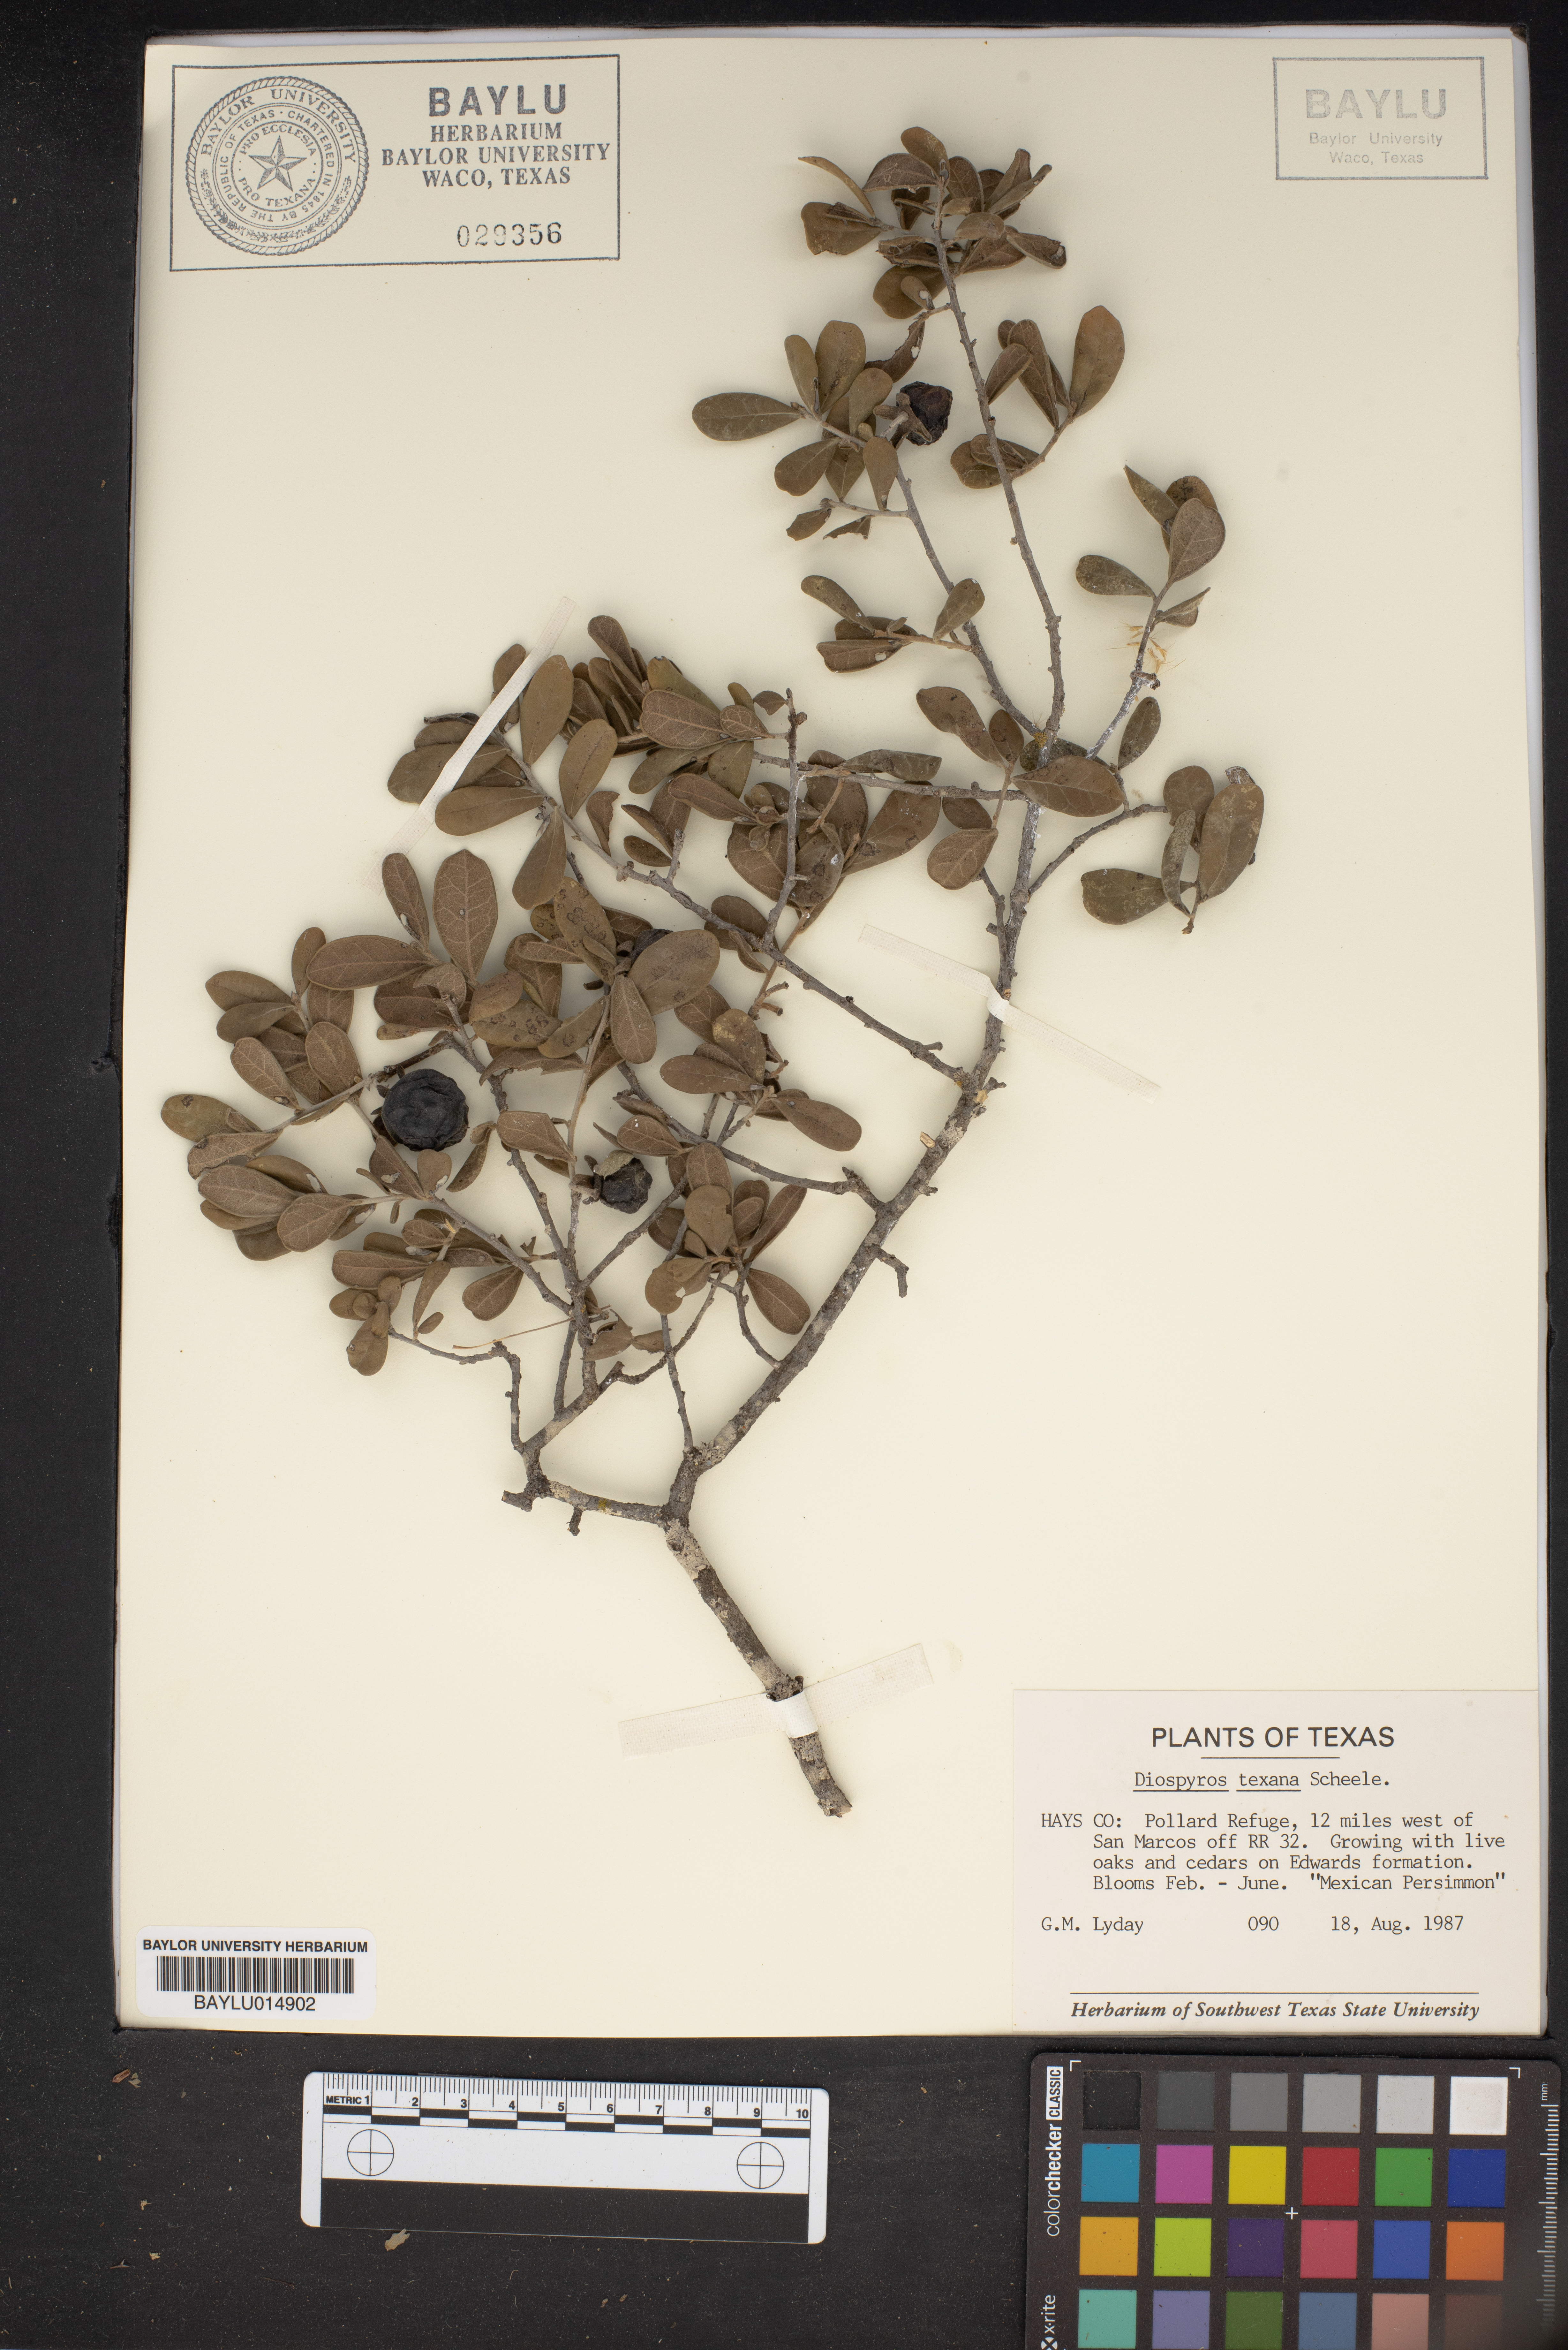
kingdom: Plantae
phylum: Tracheophyta
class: Magnoliopsida
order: Ericales
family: Ebenaceae
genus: Diospyros
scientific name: Diospyros texana
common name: Texas persimmon
